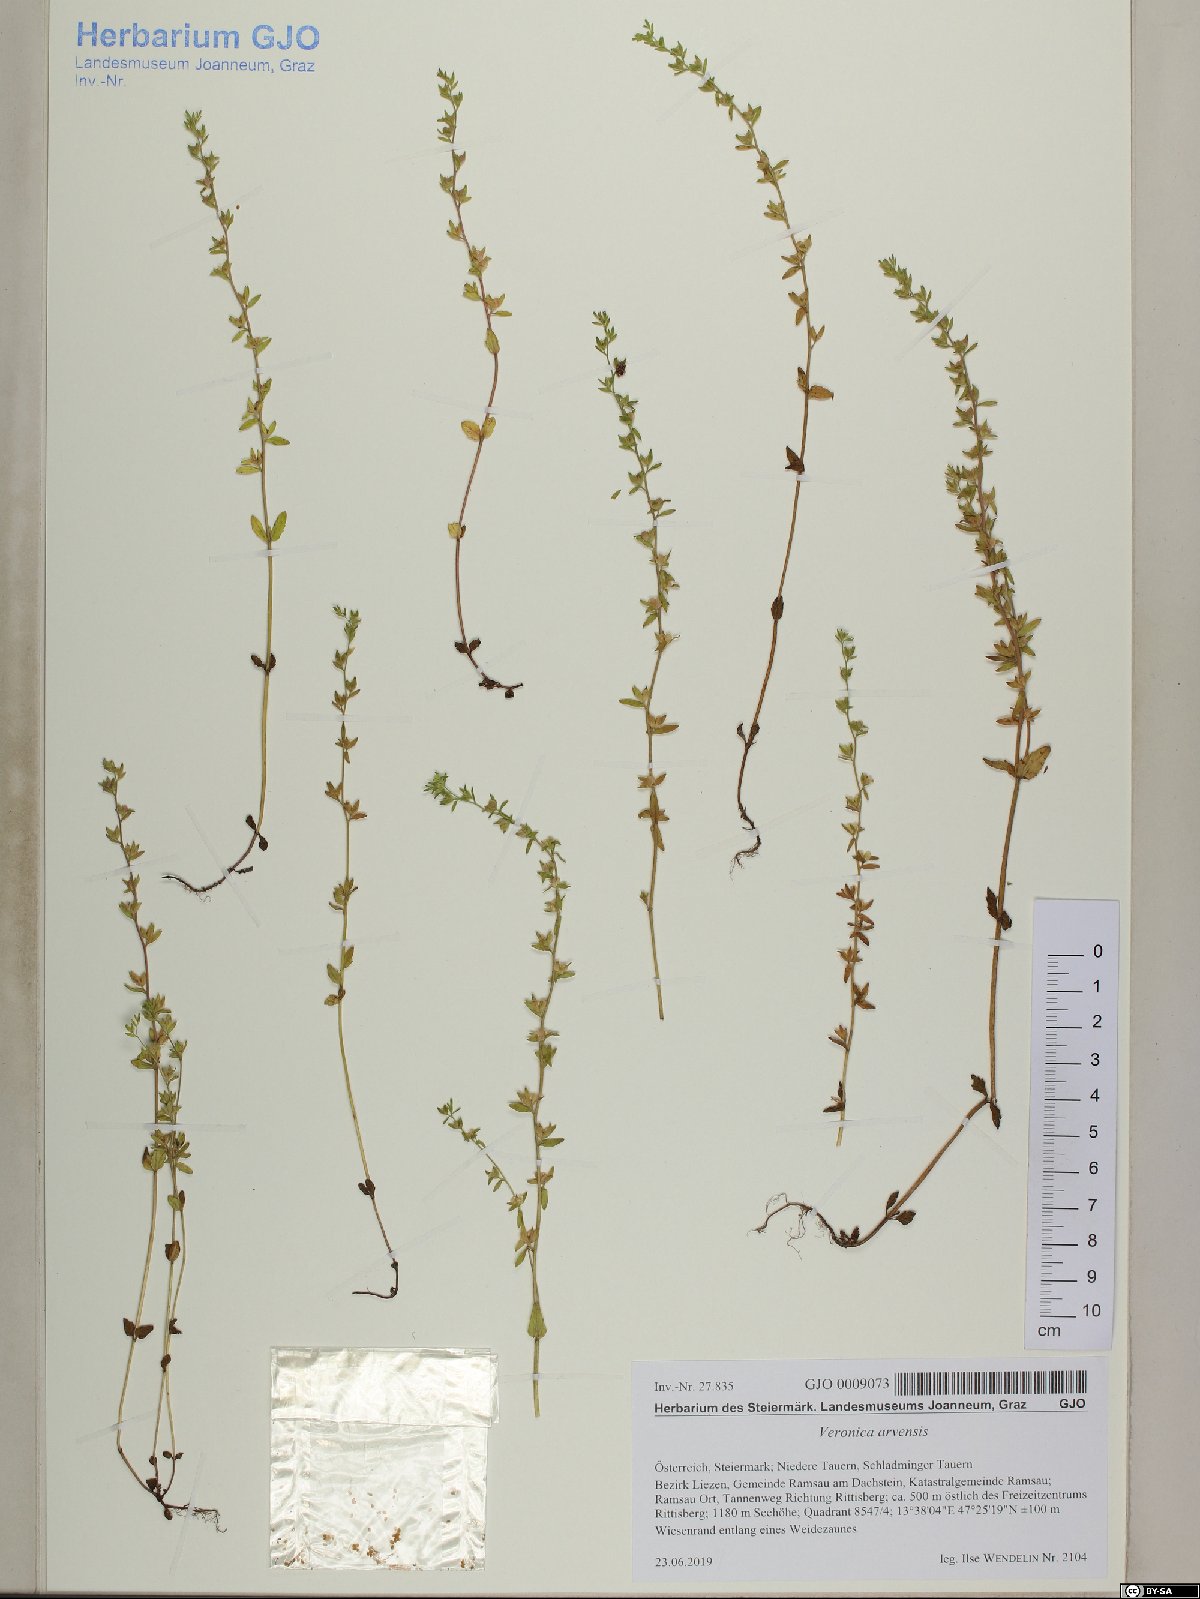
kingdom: Plantae
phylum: Tracheophyta
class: Magnoliopsida
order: Ranunculales
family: Ranunculaceae
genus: Pulsatilla
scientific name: Pulsatilla alpina
